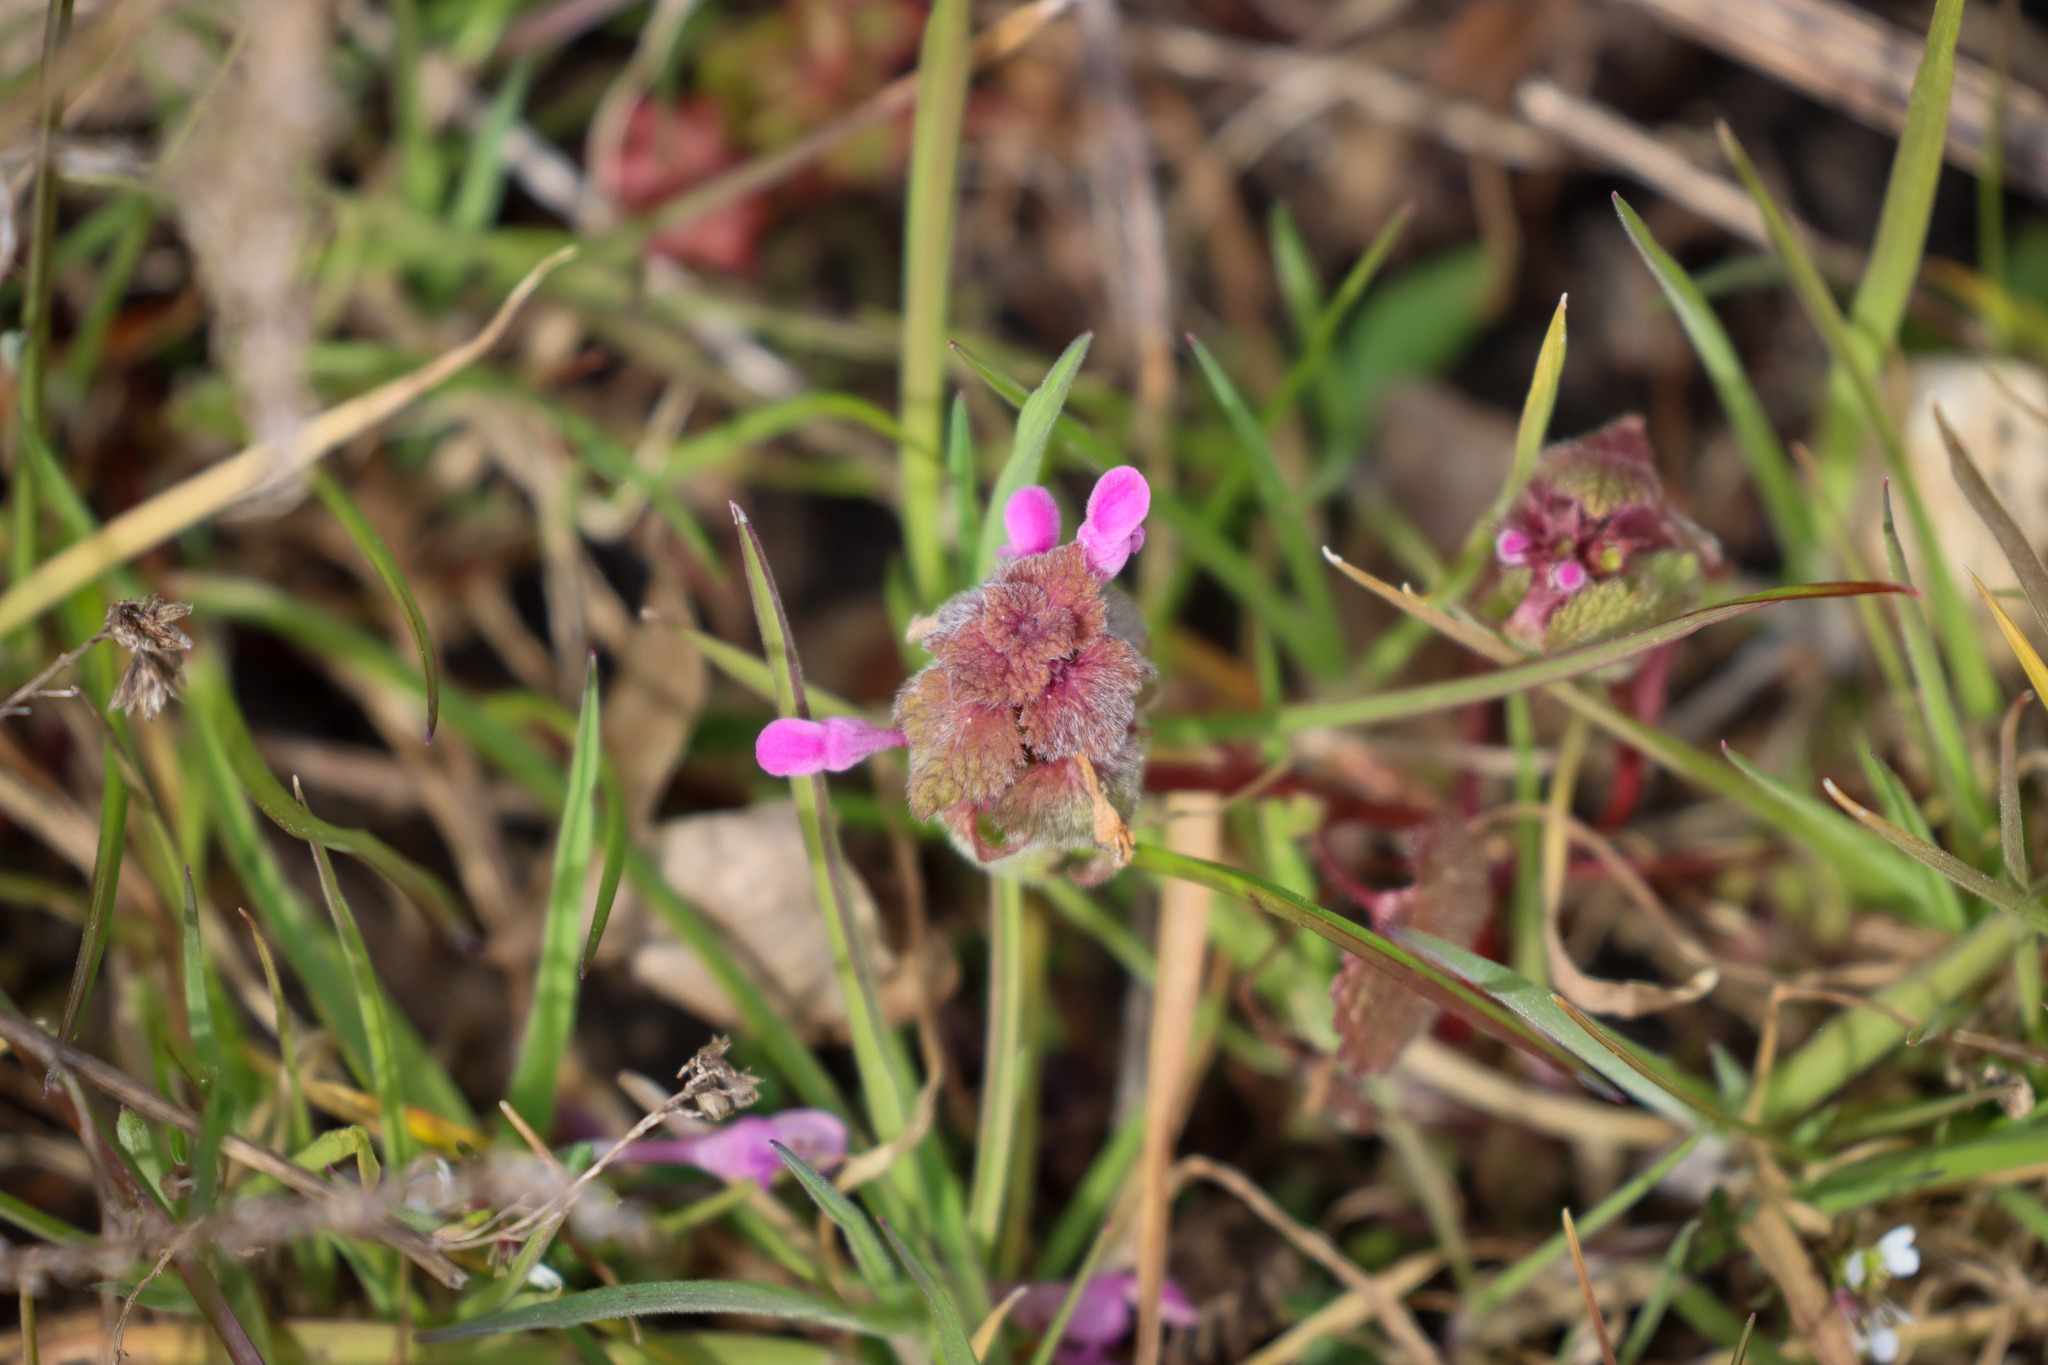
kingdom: Plantae
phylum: Tracheophyta
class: Magnoliopsida
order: Lamiales
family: Lamiaceae
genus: Lamium
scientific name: Lamium purpureum
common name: Rød tvetand
